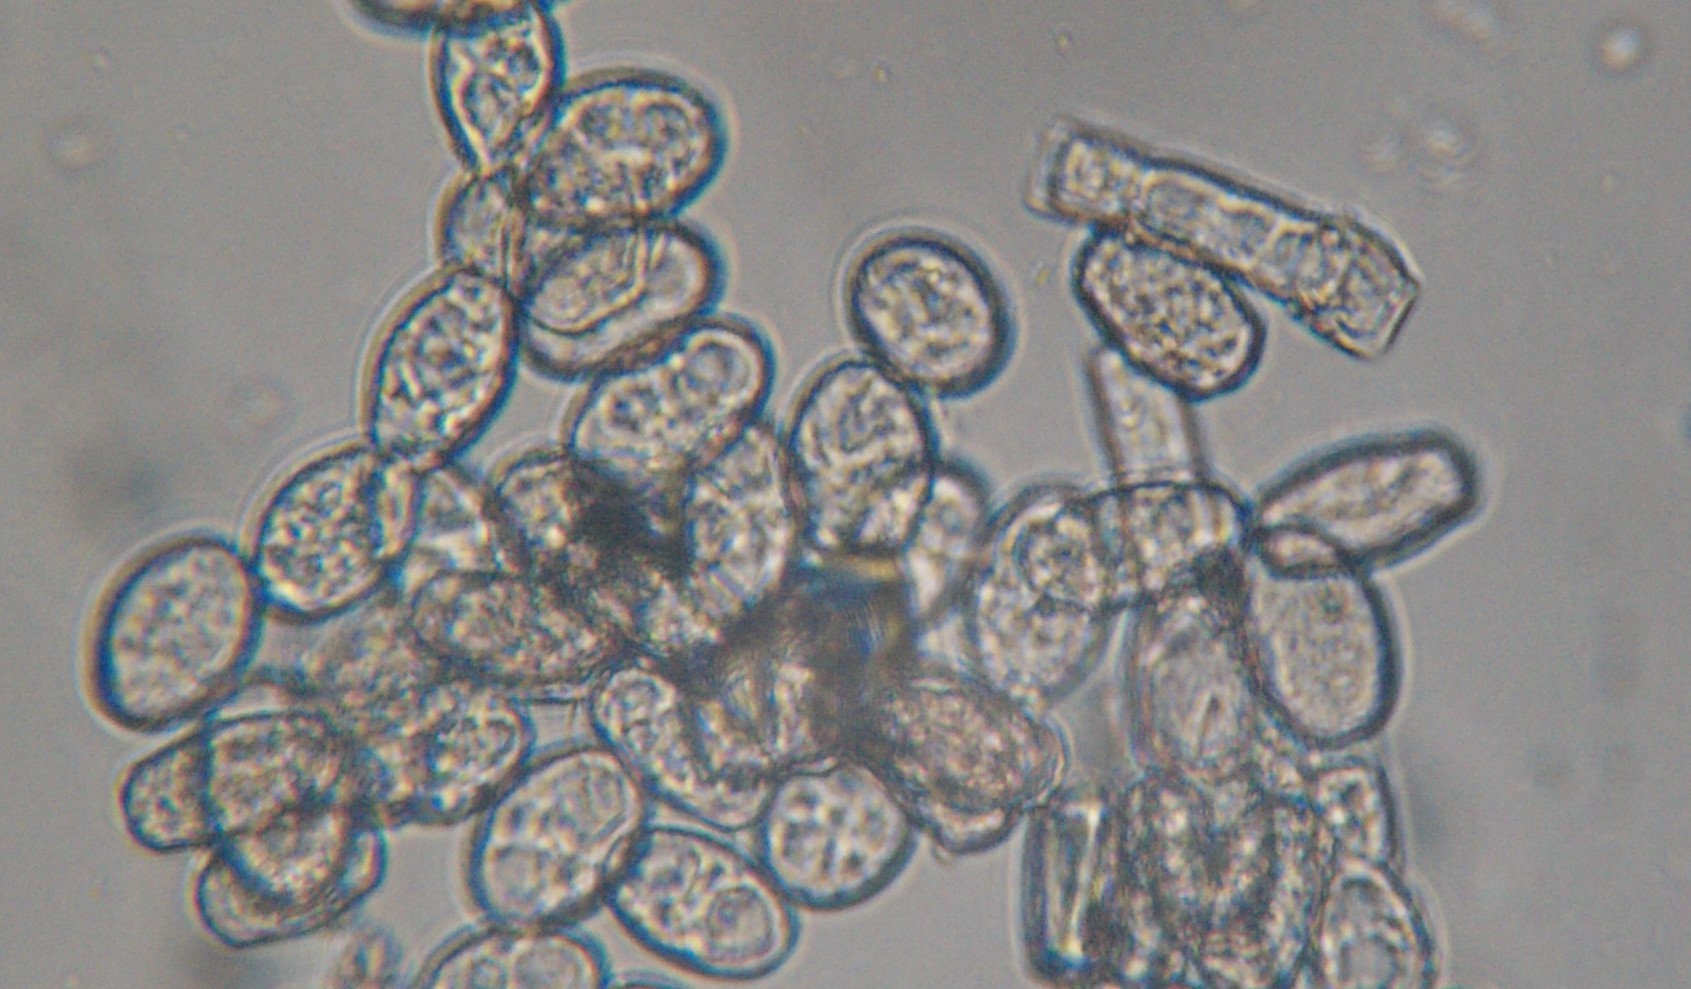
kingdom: Fungi
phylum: Ascomycota
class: Leotiomycetes
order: Helotiales
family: Erysiphaceae
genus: Neoerysiphe
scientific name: Neoerysiphe galeopsidis
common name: Mint mildew
